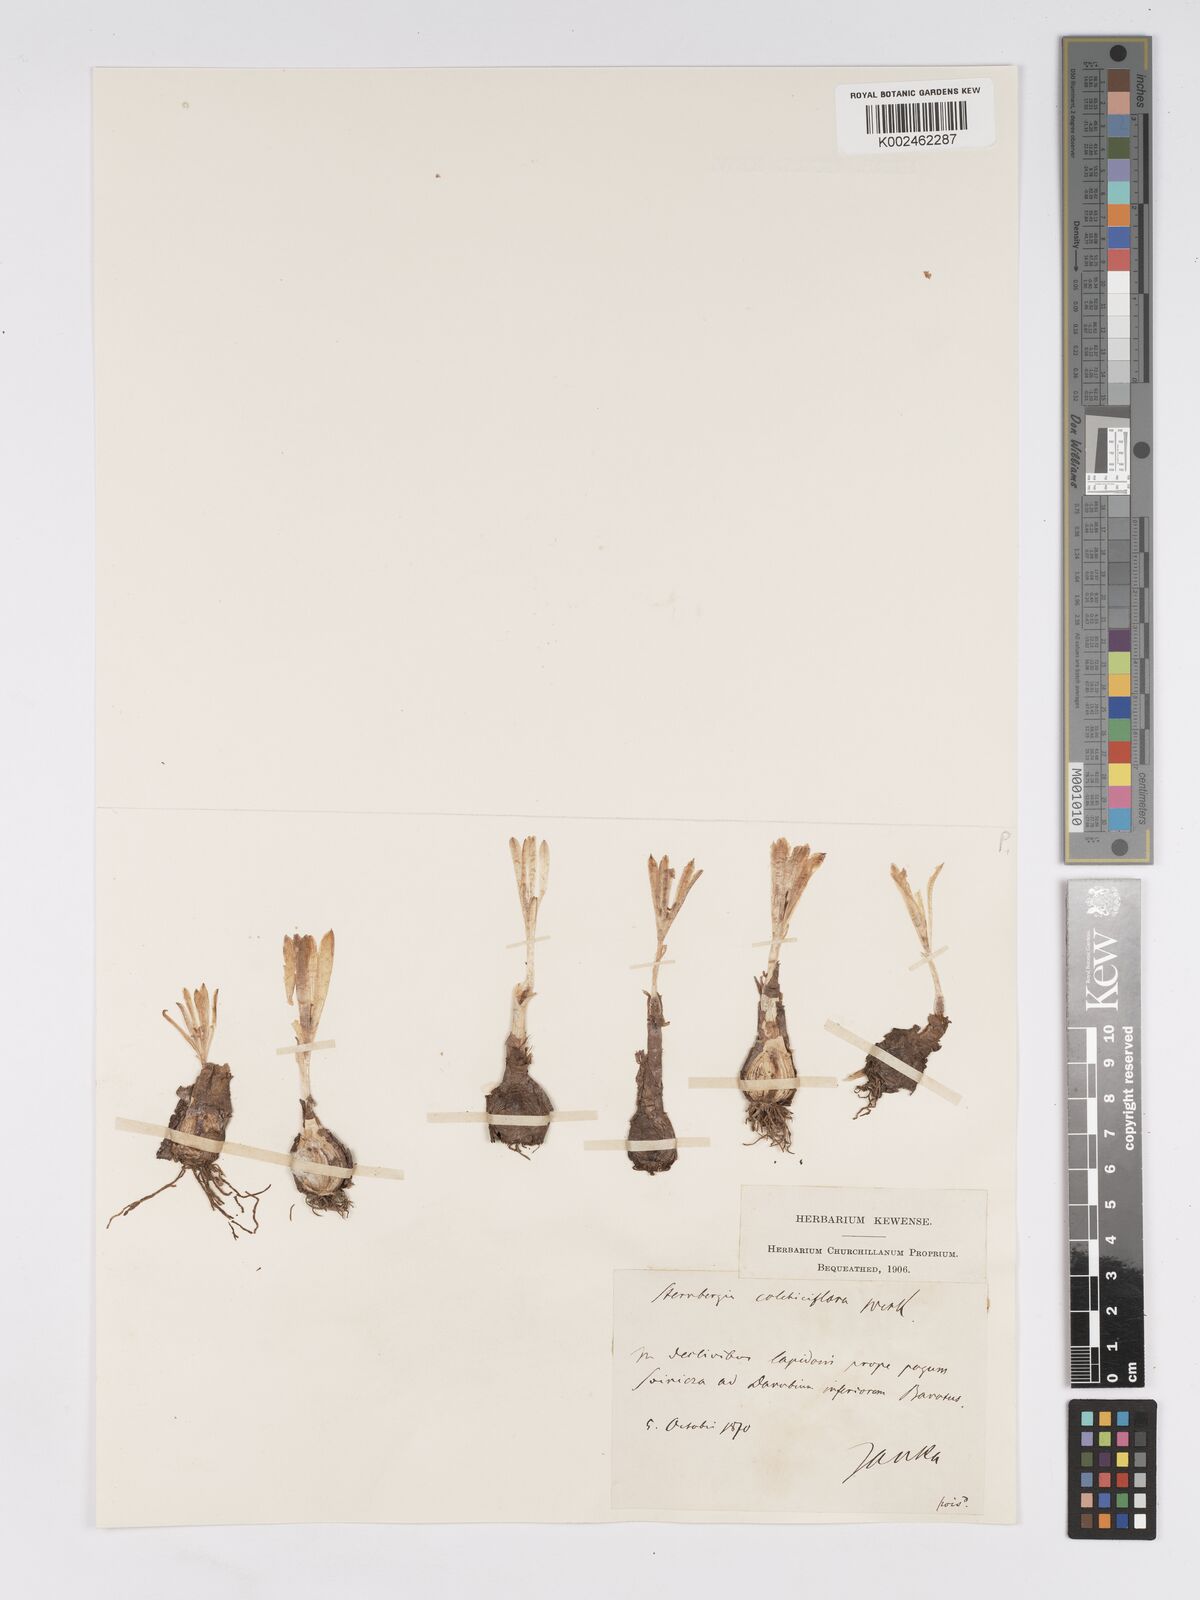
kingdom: Plantae
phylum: Tracheophyta
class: Liliopsida
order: Asparagales
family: Amaryllidaceae
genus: Sternbergia
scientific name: Sternbergia colchiciflora
